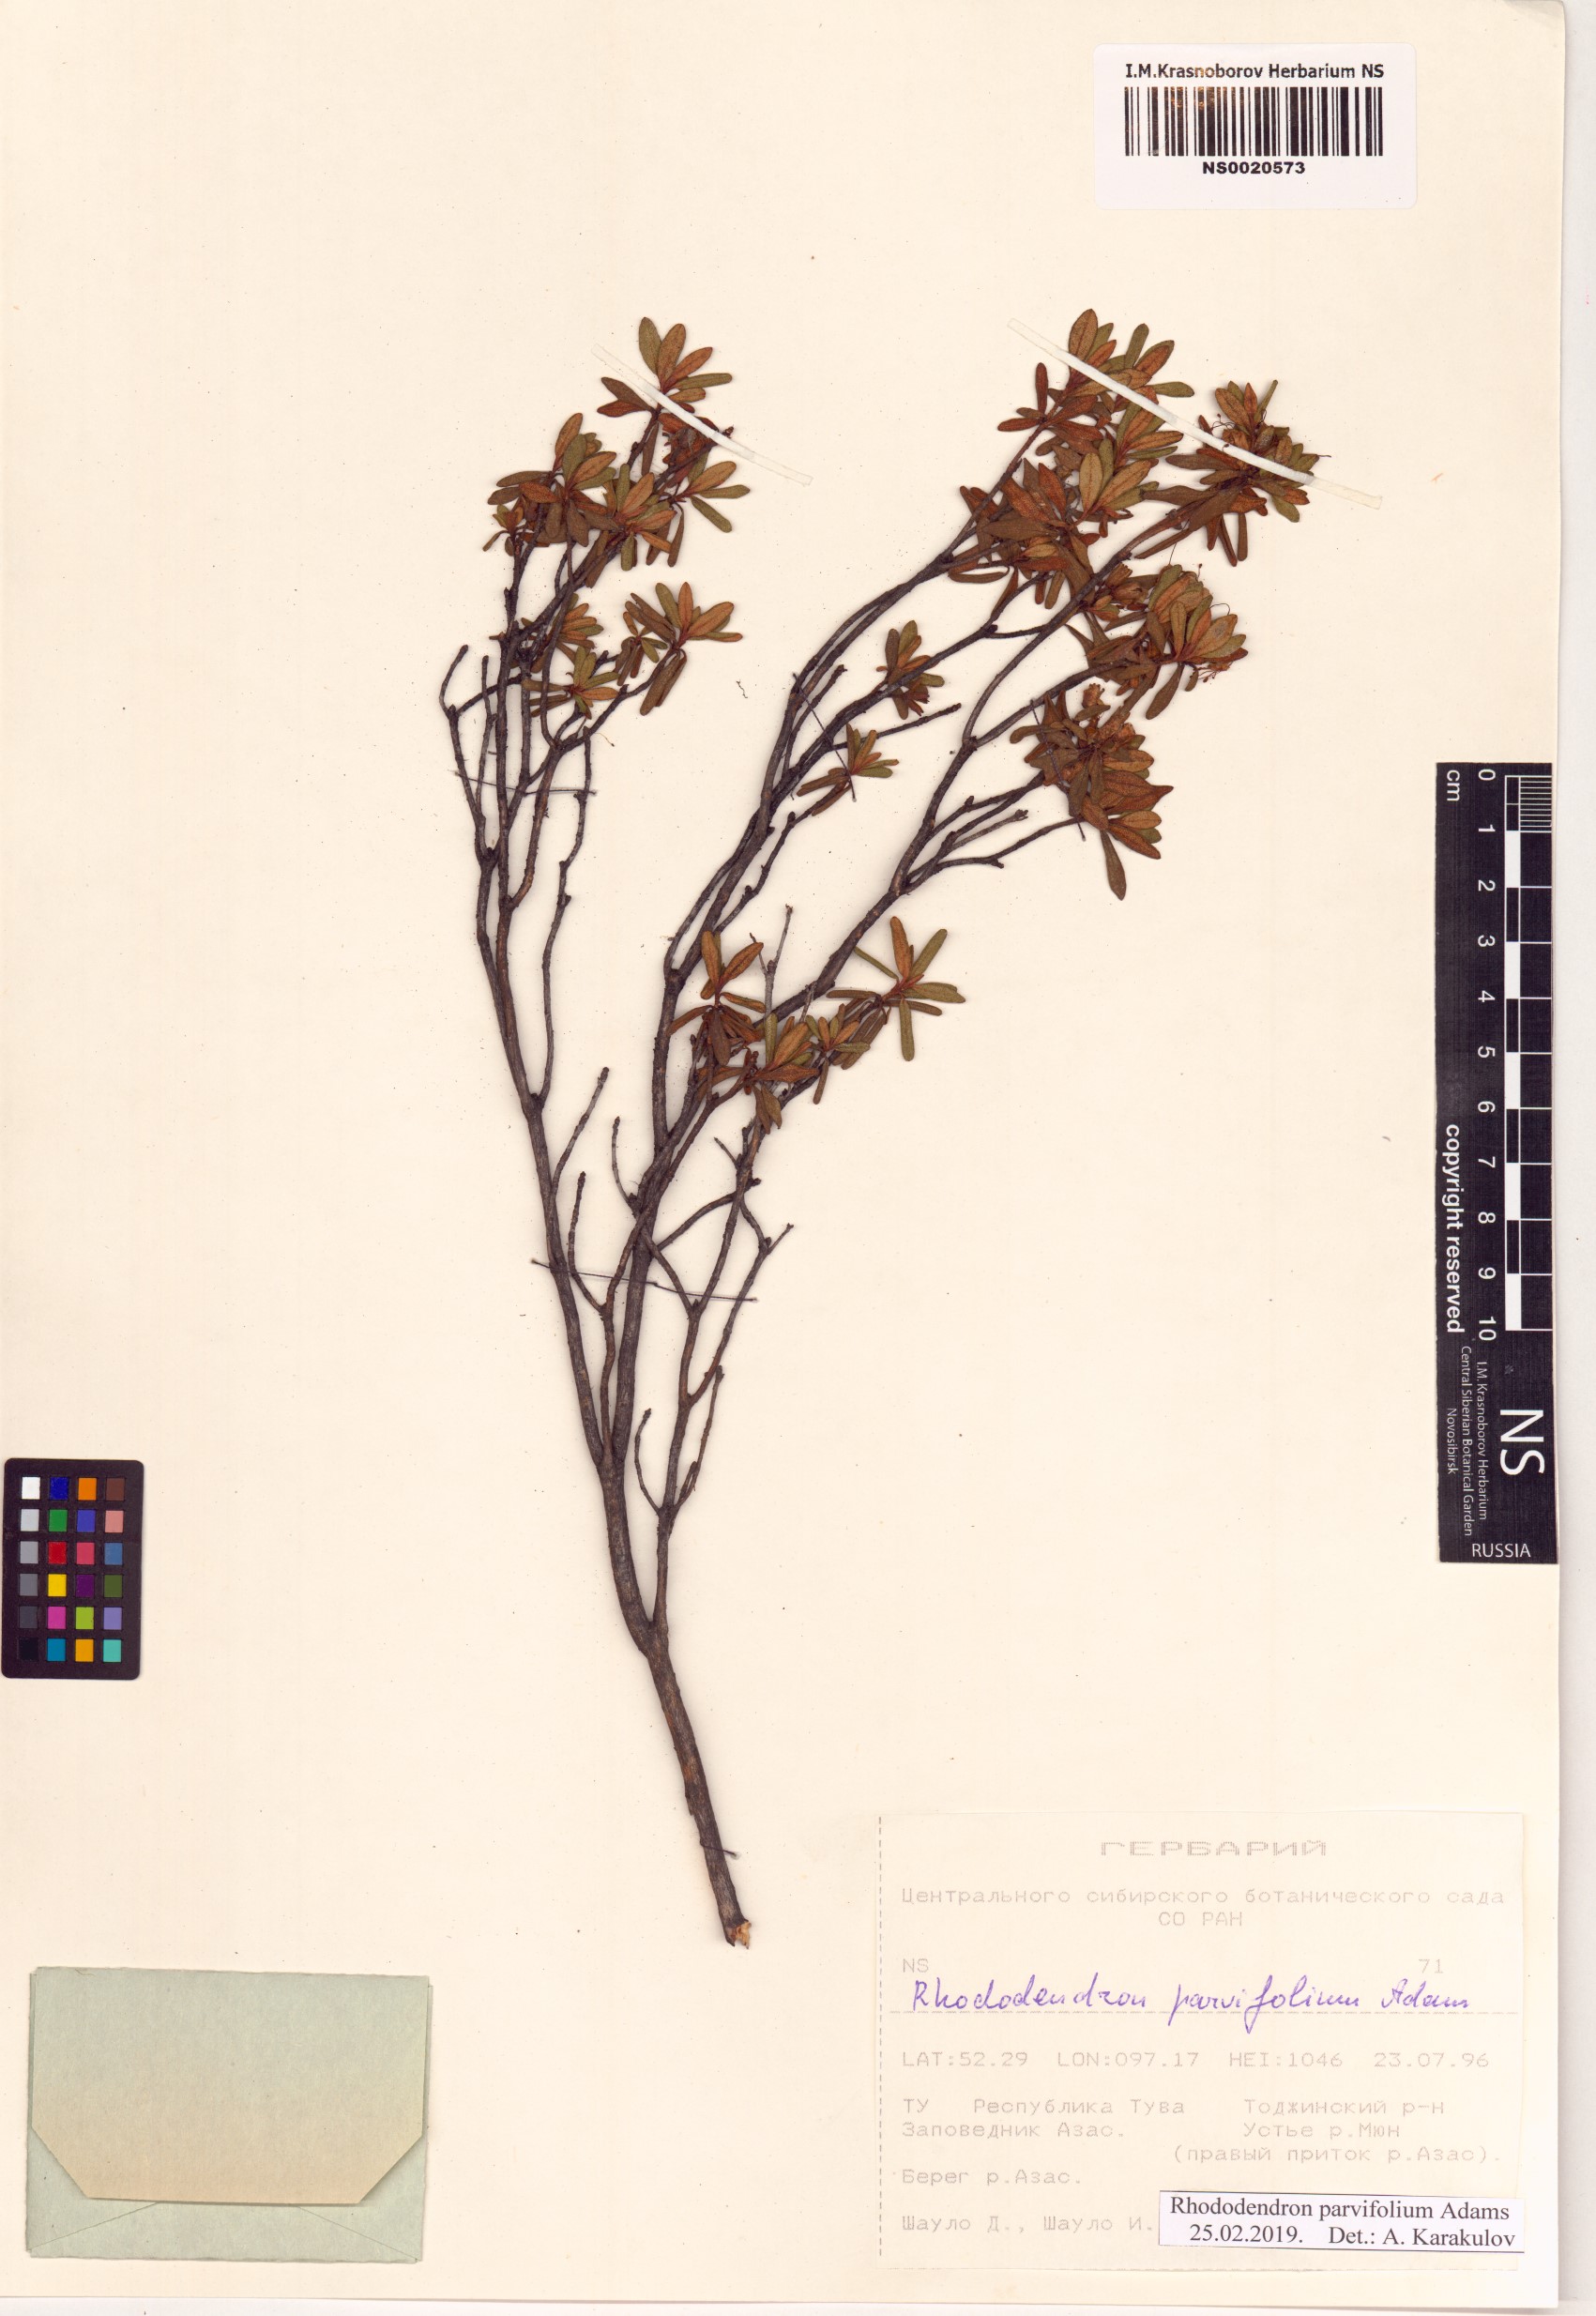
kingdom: Plantae
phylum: Tracheophyta
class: Magnoliopsida
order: Ericales
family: Ericaceae
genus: Rhododendron
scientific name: Rhododendron parvifolium
